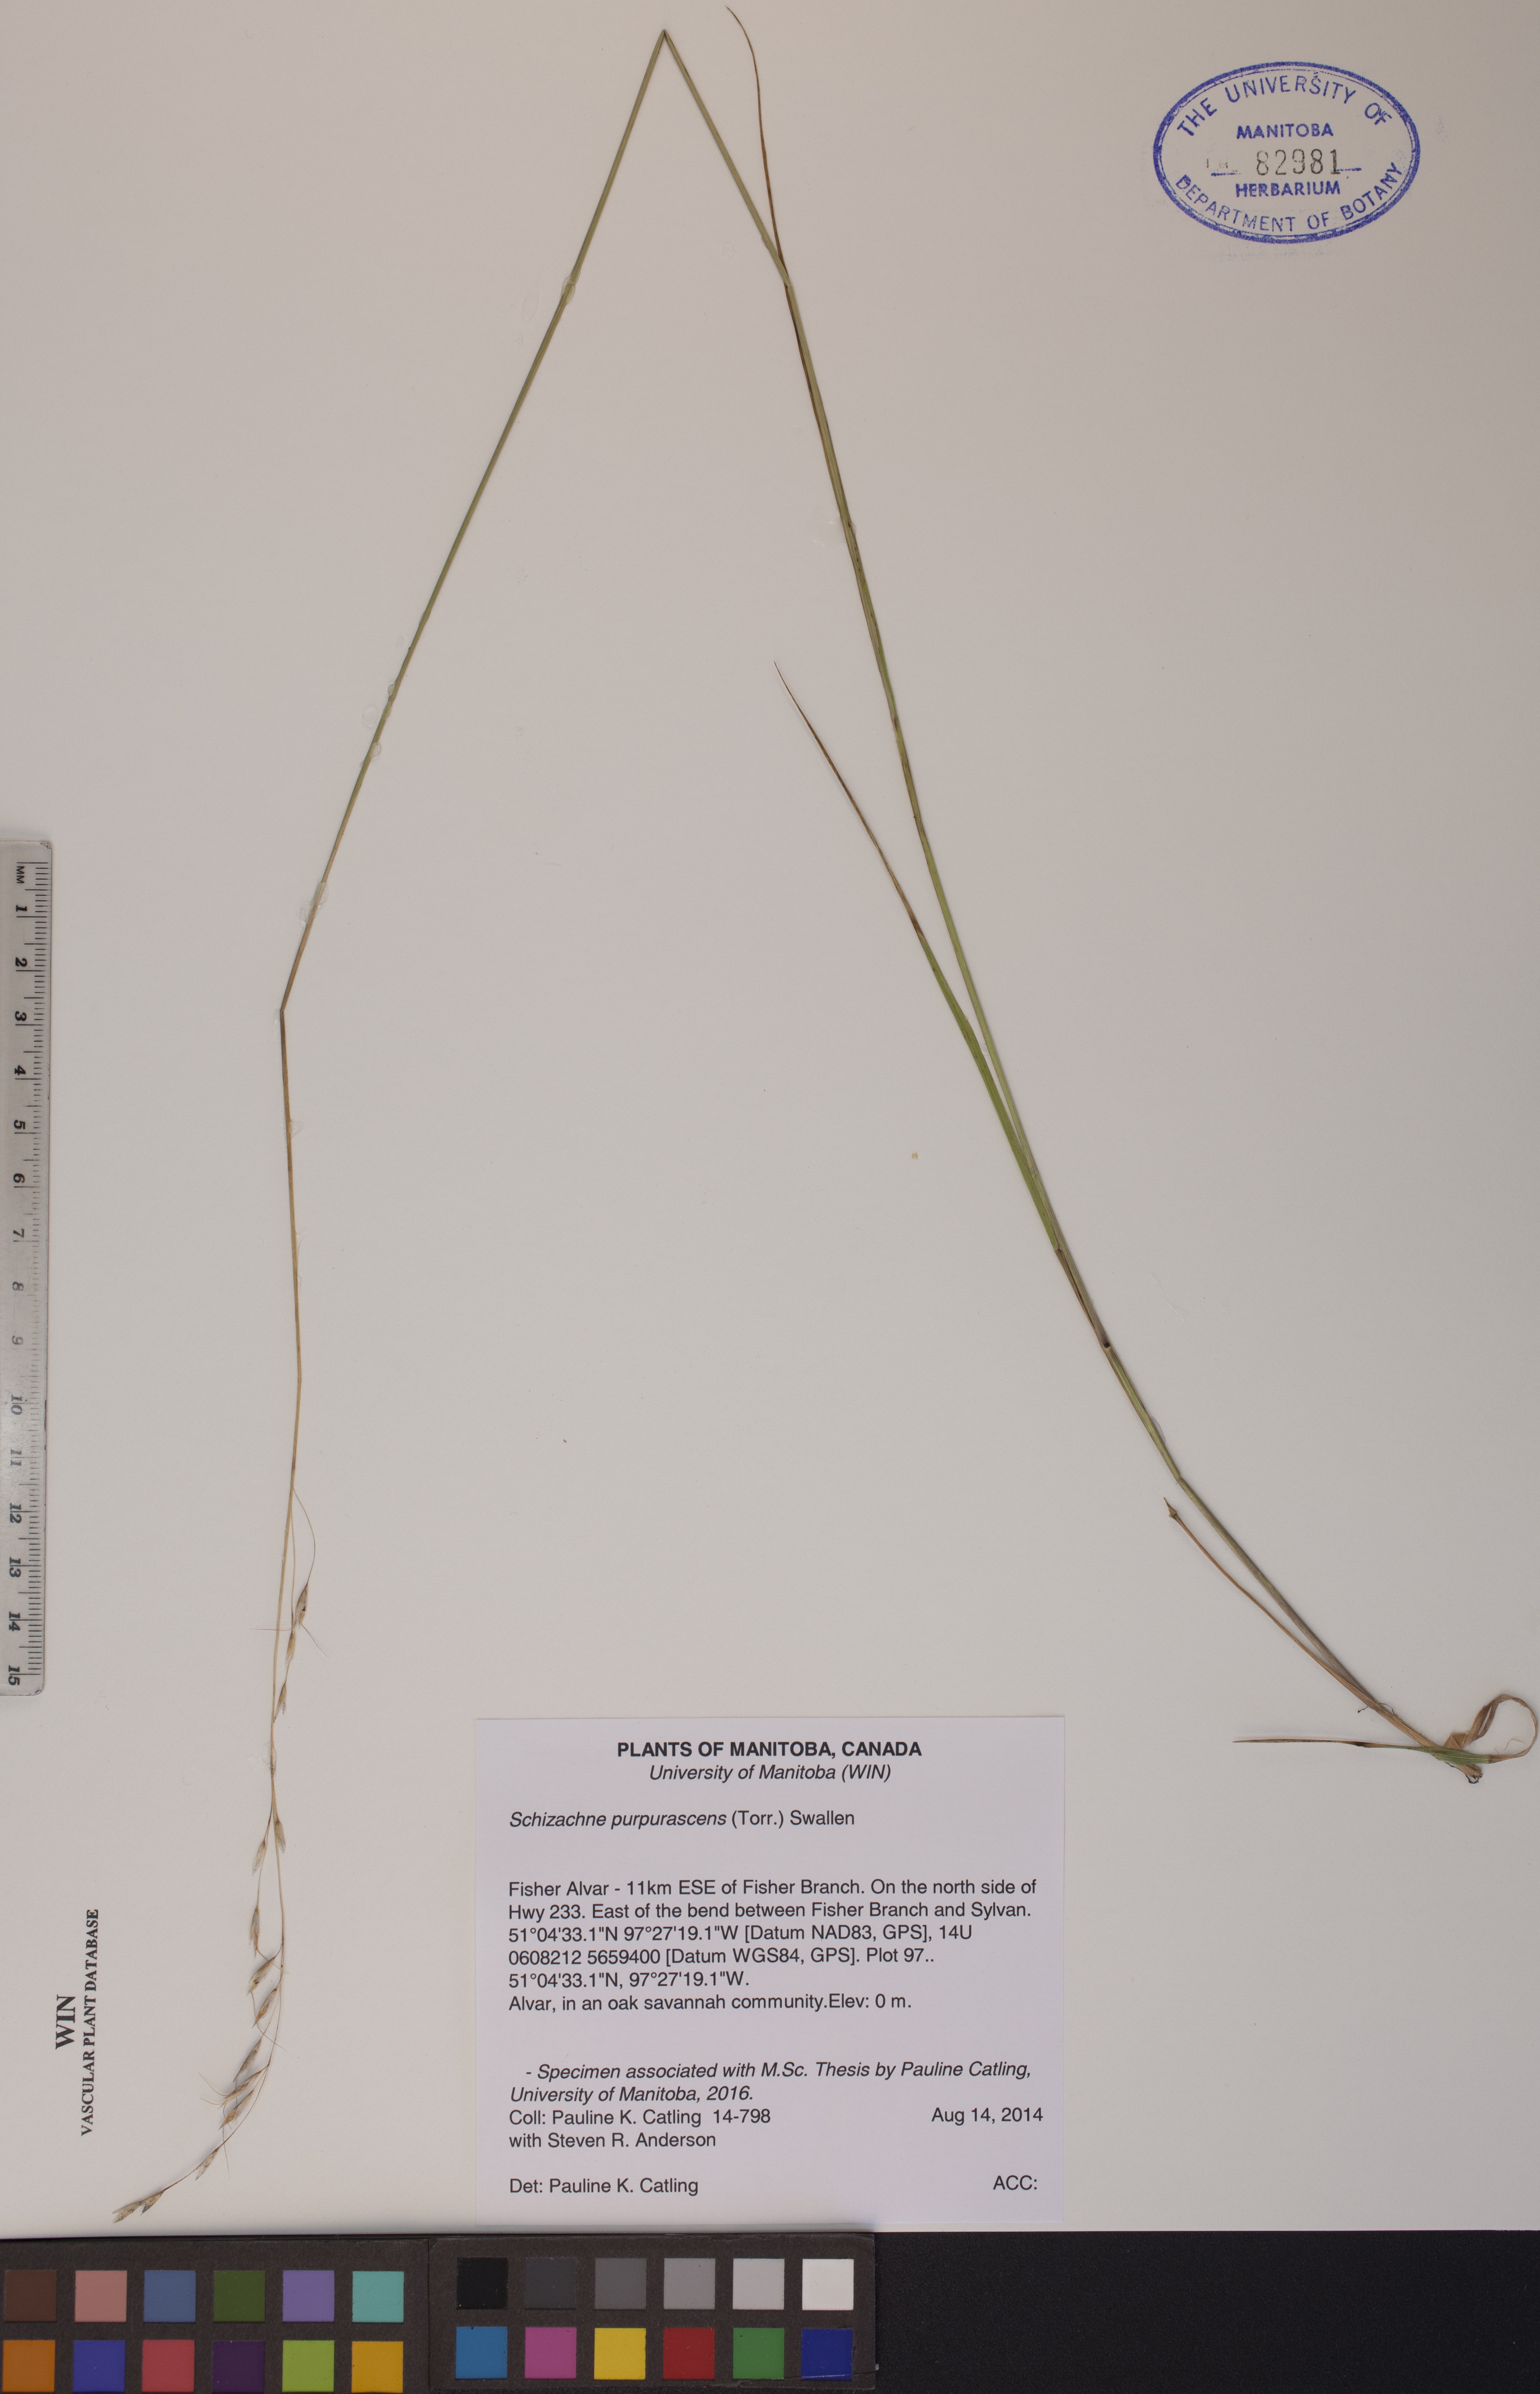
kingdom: Plantae
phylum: Tracheophyta
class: Liliopsida
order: Poales
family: Poaceae
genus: Schizachne
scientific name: Schizachne purpurascens
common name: False melic
